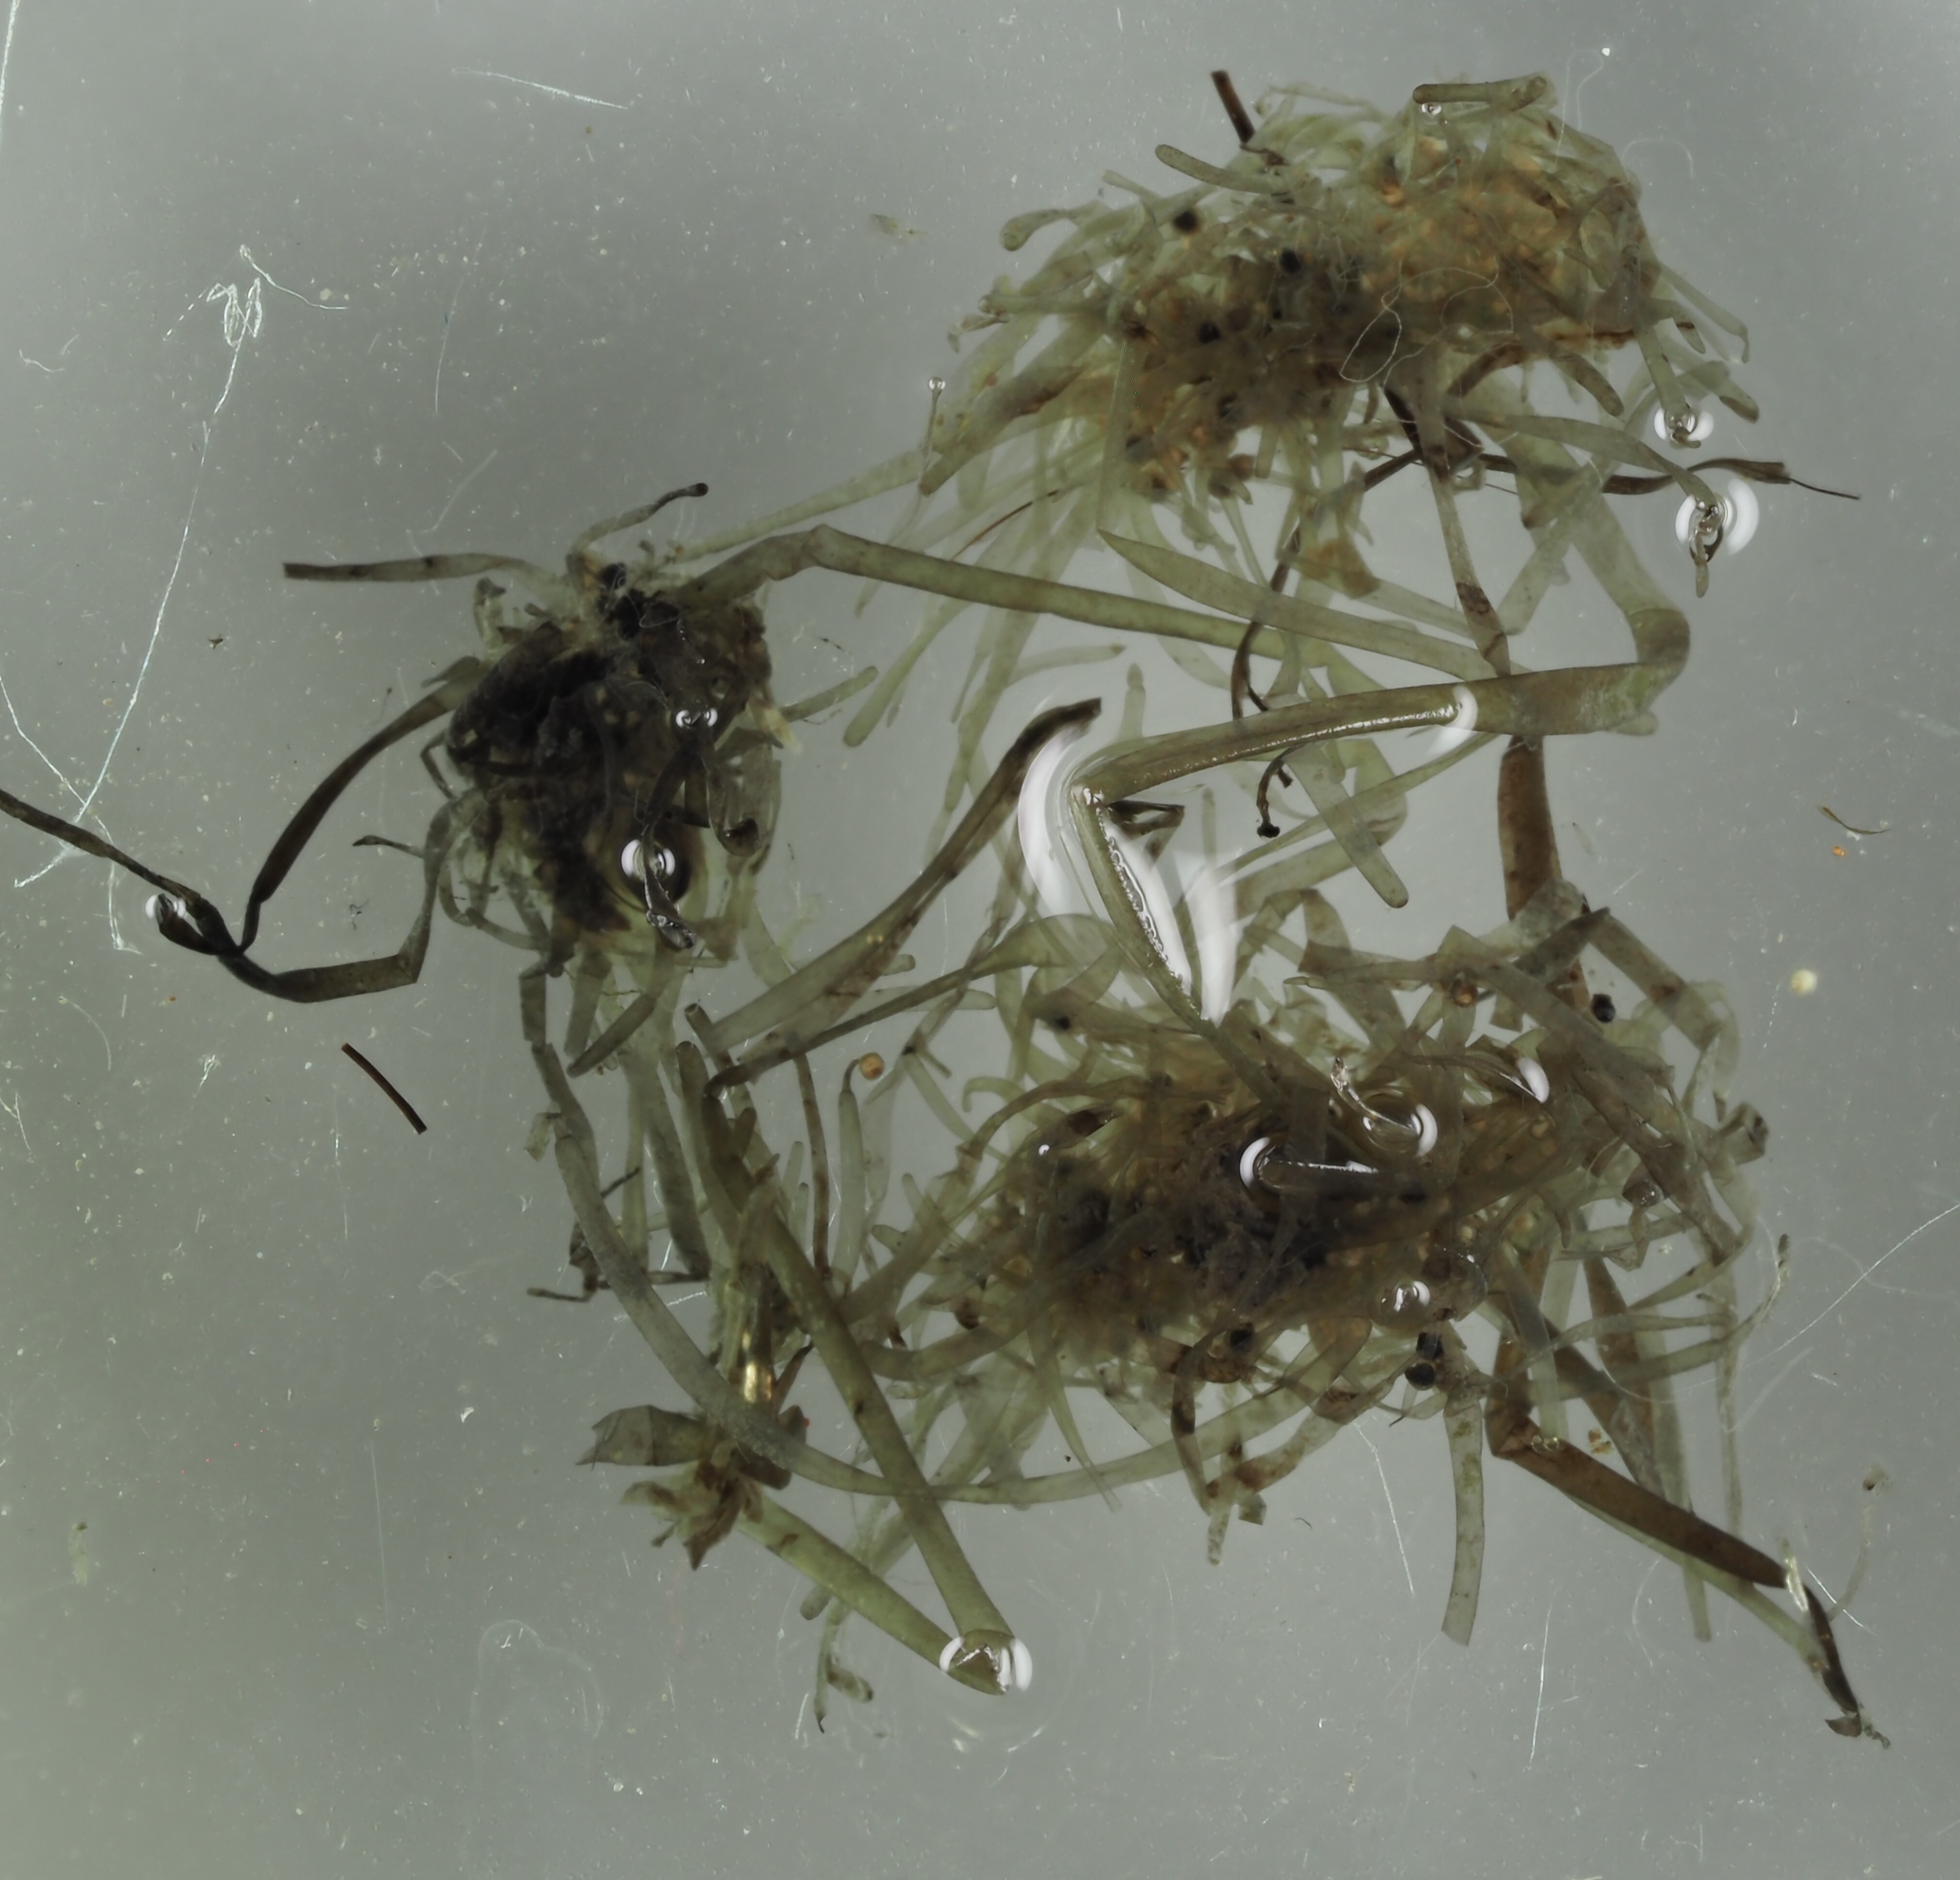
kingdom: Plantae
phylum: Charophyta
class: Charophyceae
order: Charales
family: Characeae
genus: Tolypella
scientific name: Tolypella nidifica
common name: Bird's-nest stonewort
